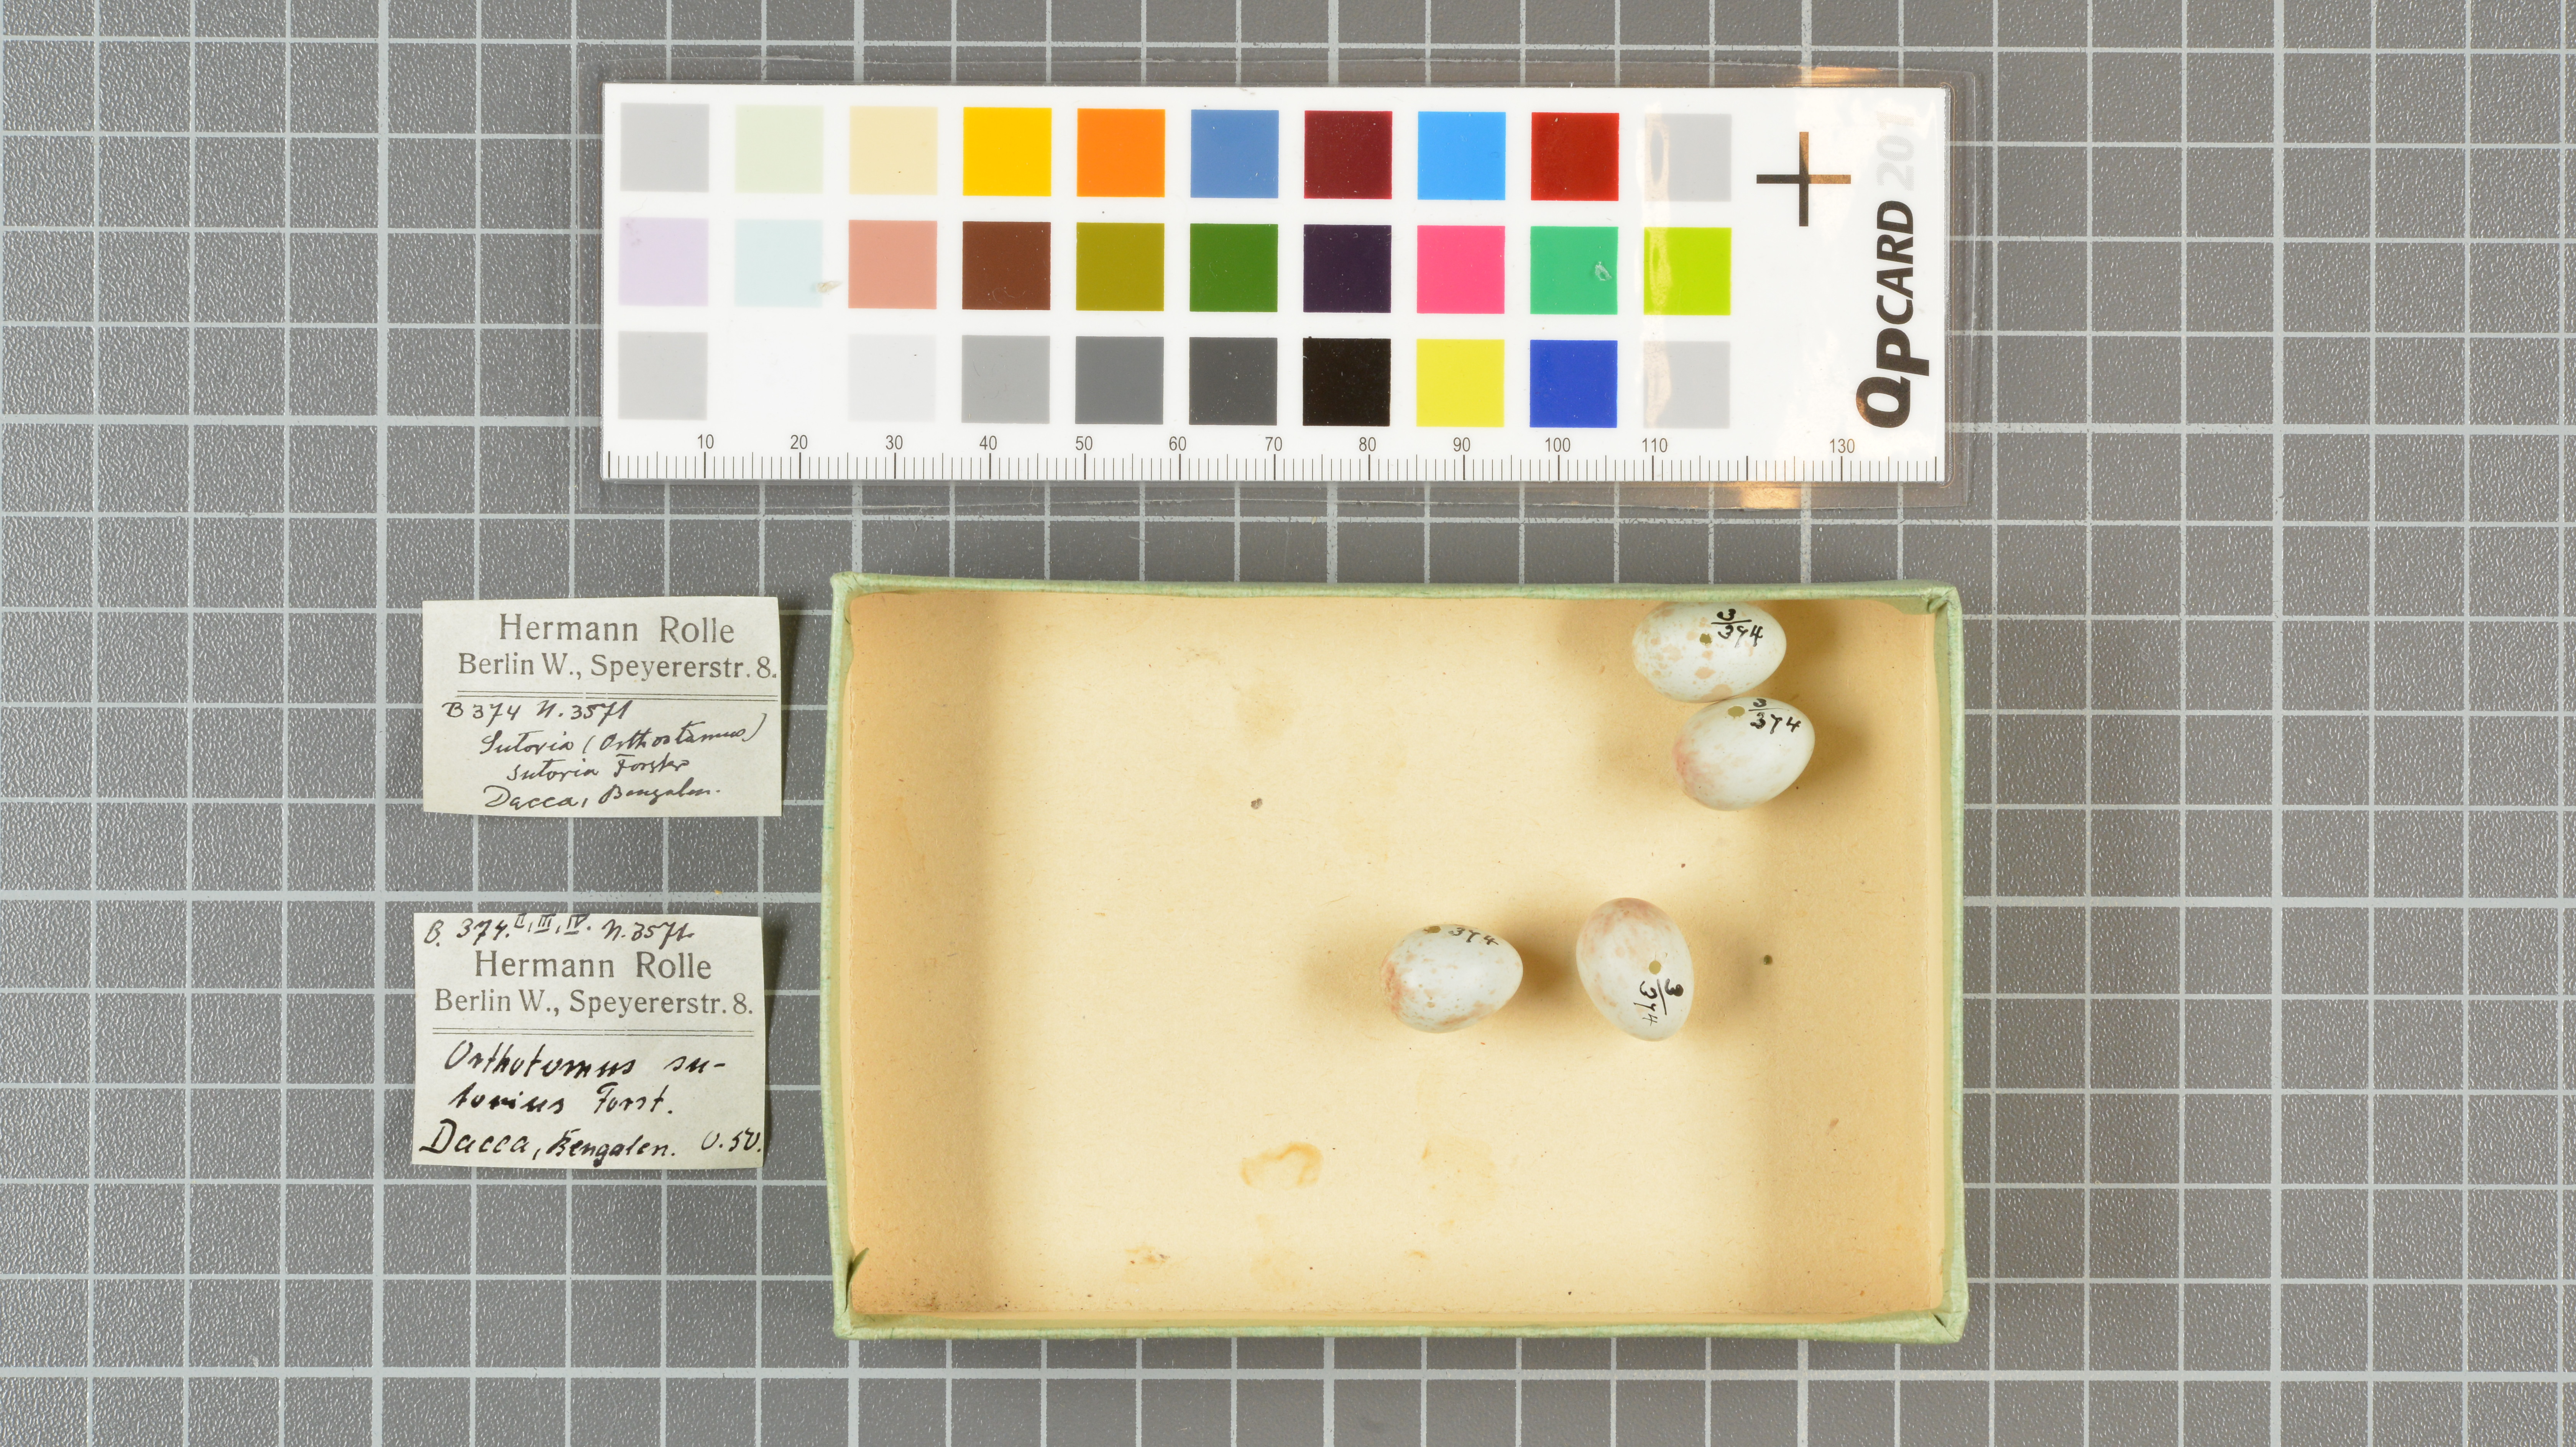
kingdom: Animalia
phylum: Chordata
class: Aves
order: Passeriformes
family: Cisticolidae
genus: Orthotomus
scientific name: Orthotomus sutorius
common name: Common tailorbird
